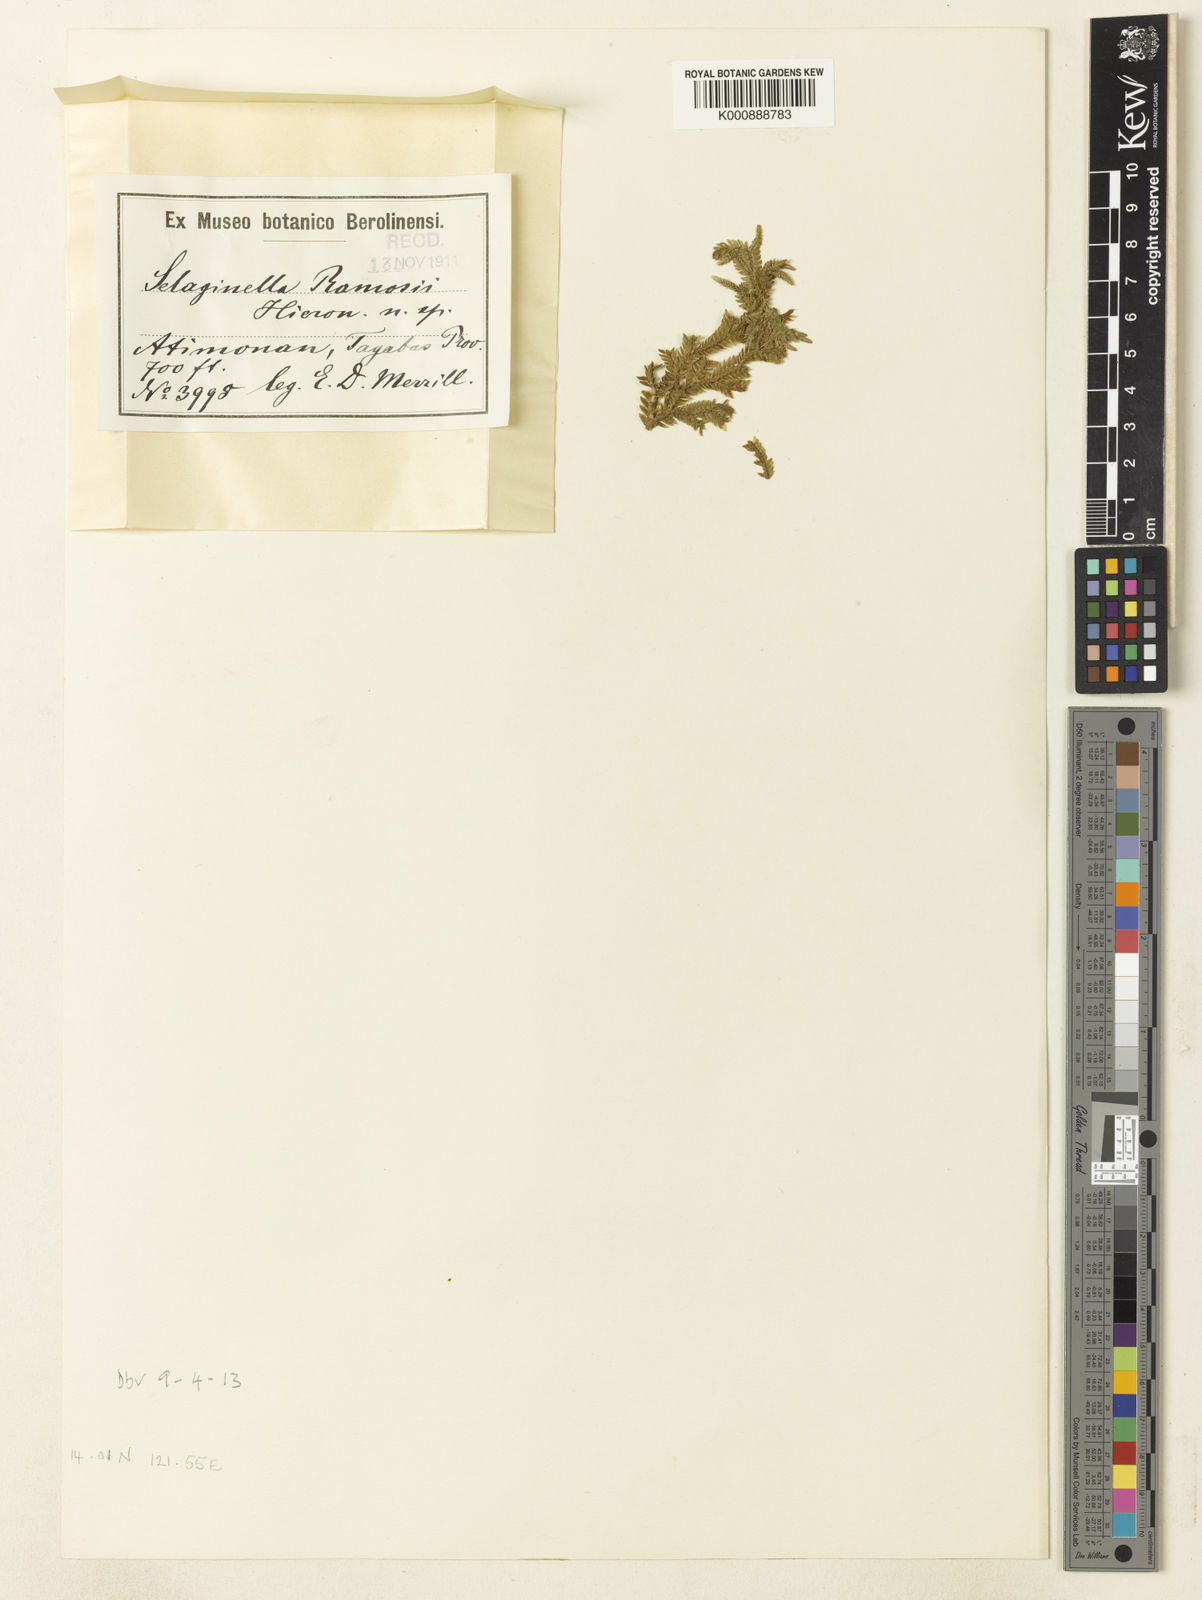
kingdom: Plantae
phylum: Tracheophyta
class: Lycopodiopsida
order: Selaginellales
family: Selaginellaceae
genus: Selaginella
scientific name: Selaginella ramosii
